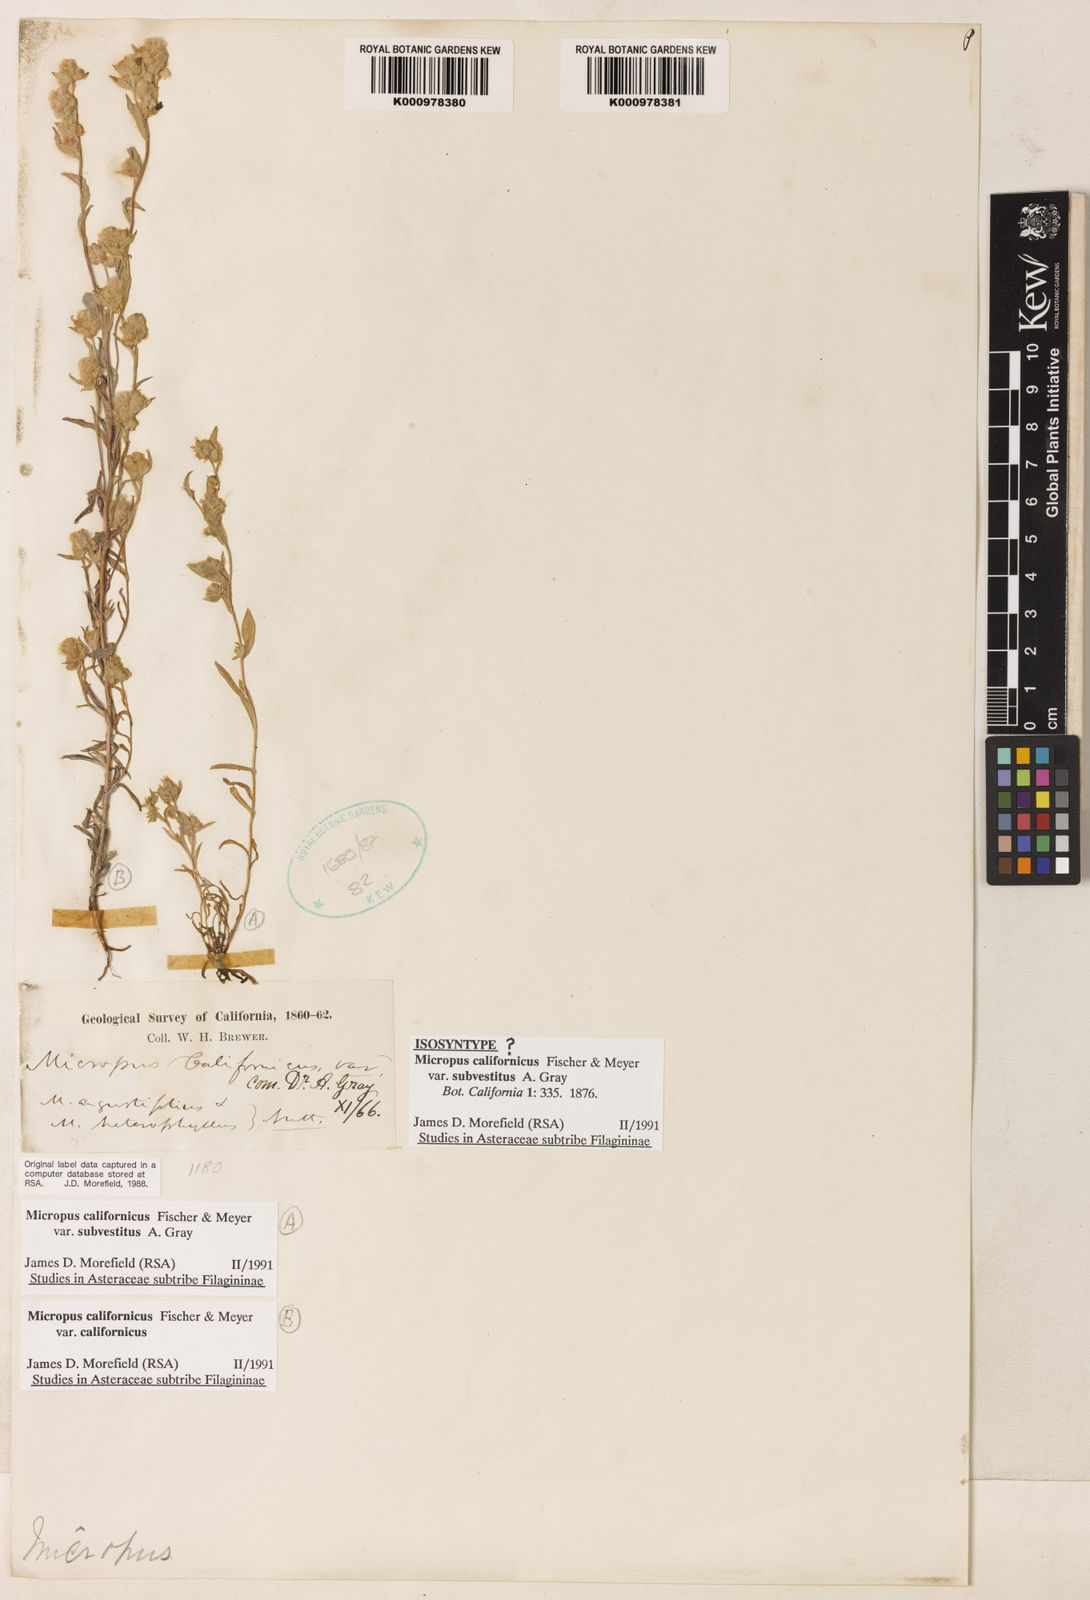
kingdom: Plantae
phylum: Tracheophyta
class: Magnoliopsida
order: Asterales
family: Asteraceae
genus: Bombycilaena
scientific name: Bombycilaena californica
